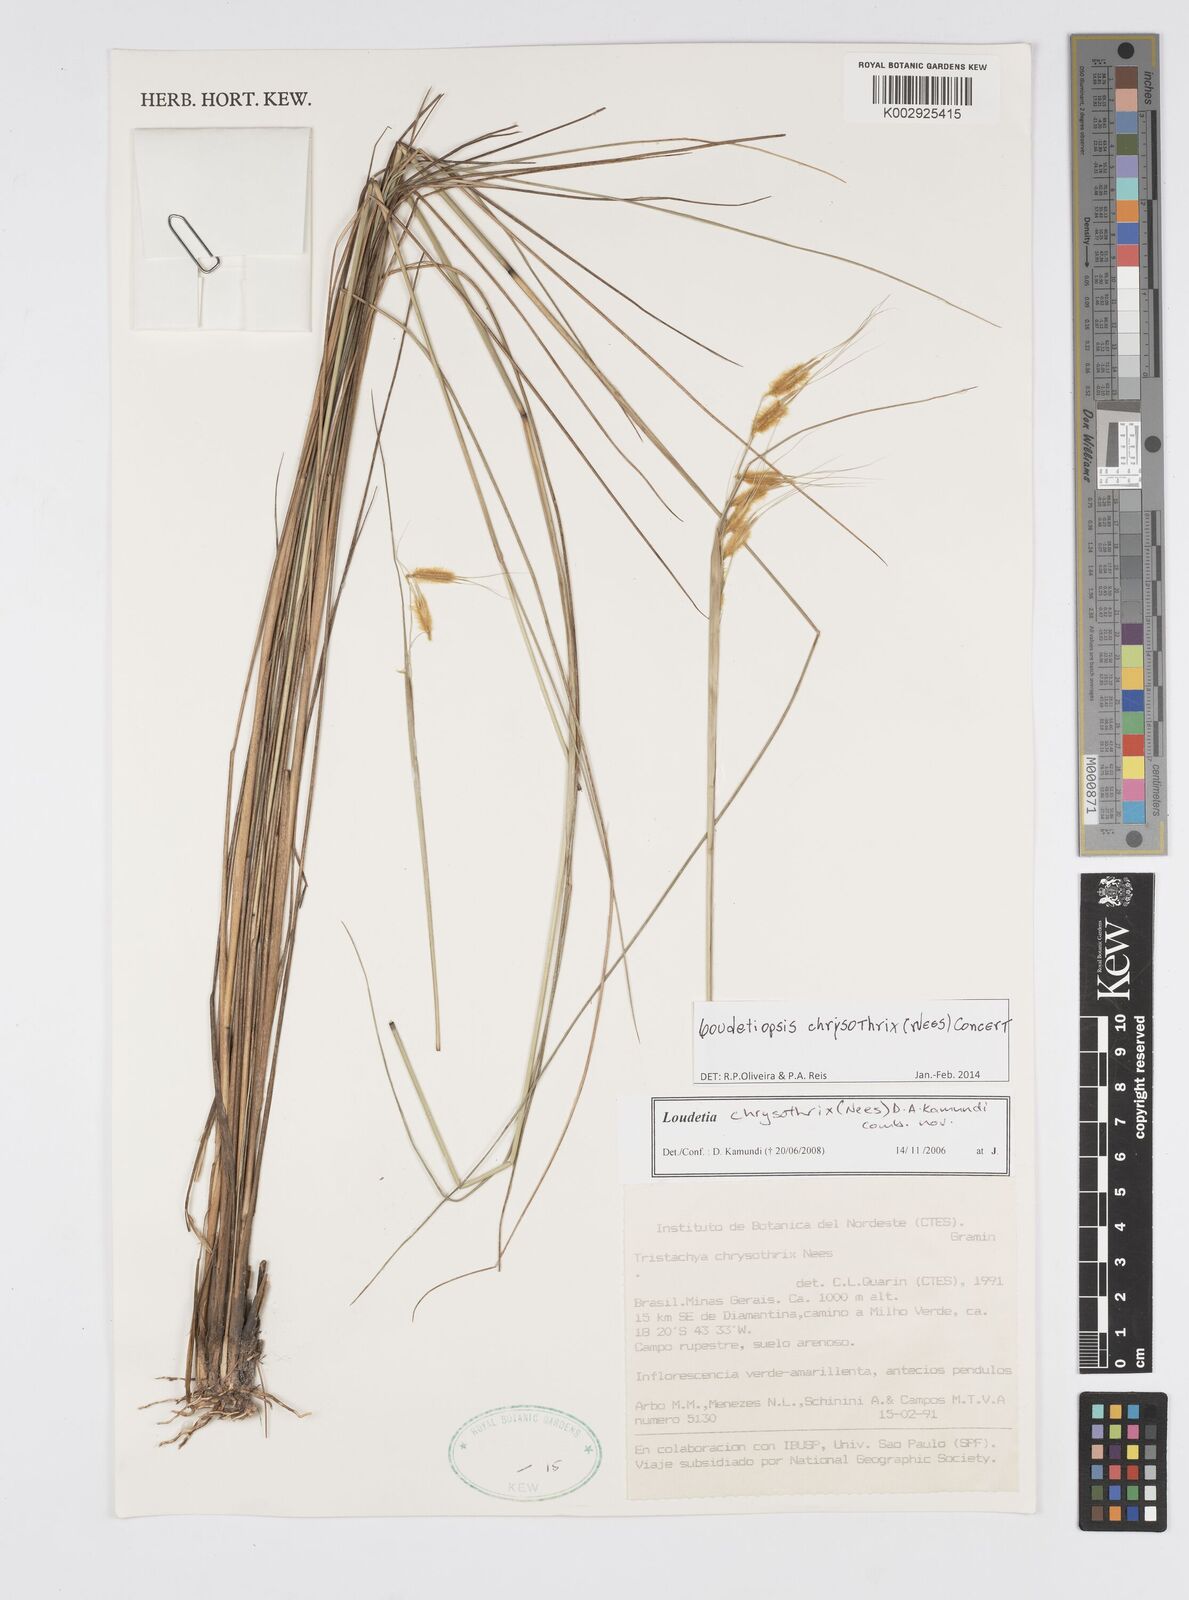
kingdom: Plantae
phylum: Tracheophyta
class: Liliopsida
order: Poales
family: Poaceae
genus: Loudetiopsis
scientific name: Loudetiopsis chrysothrix
